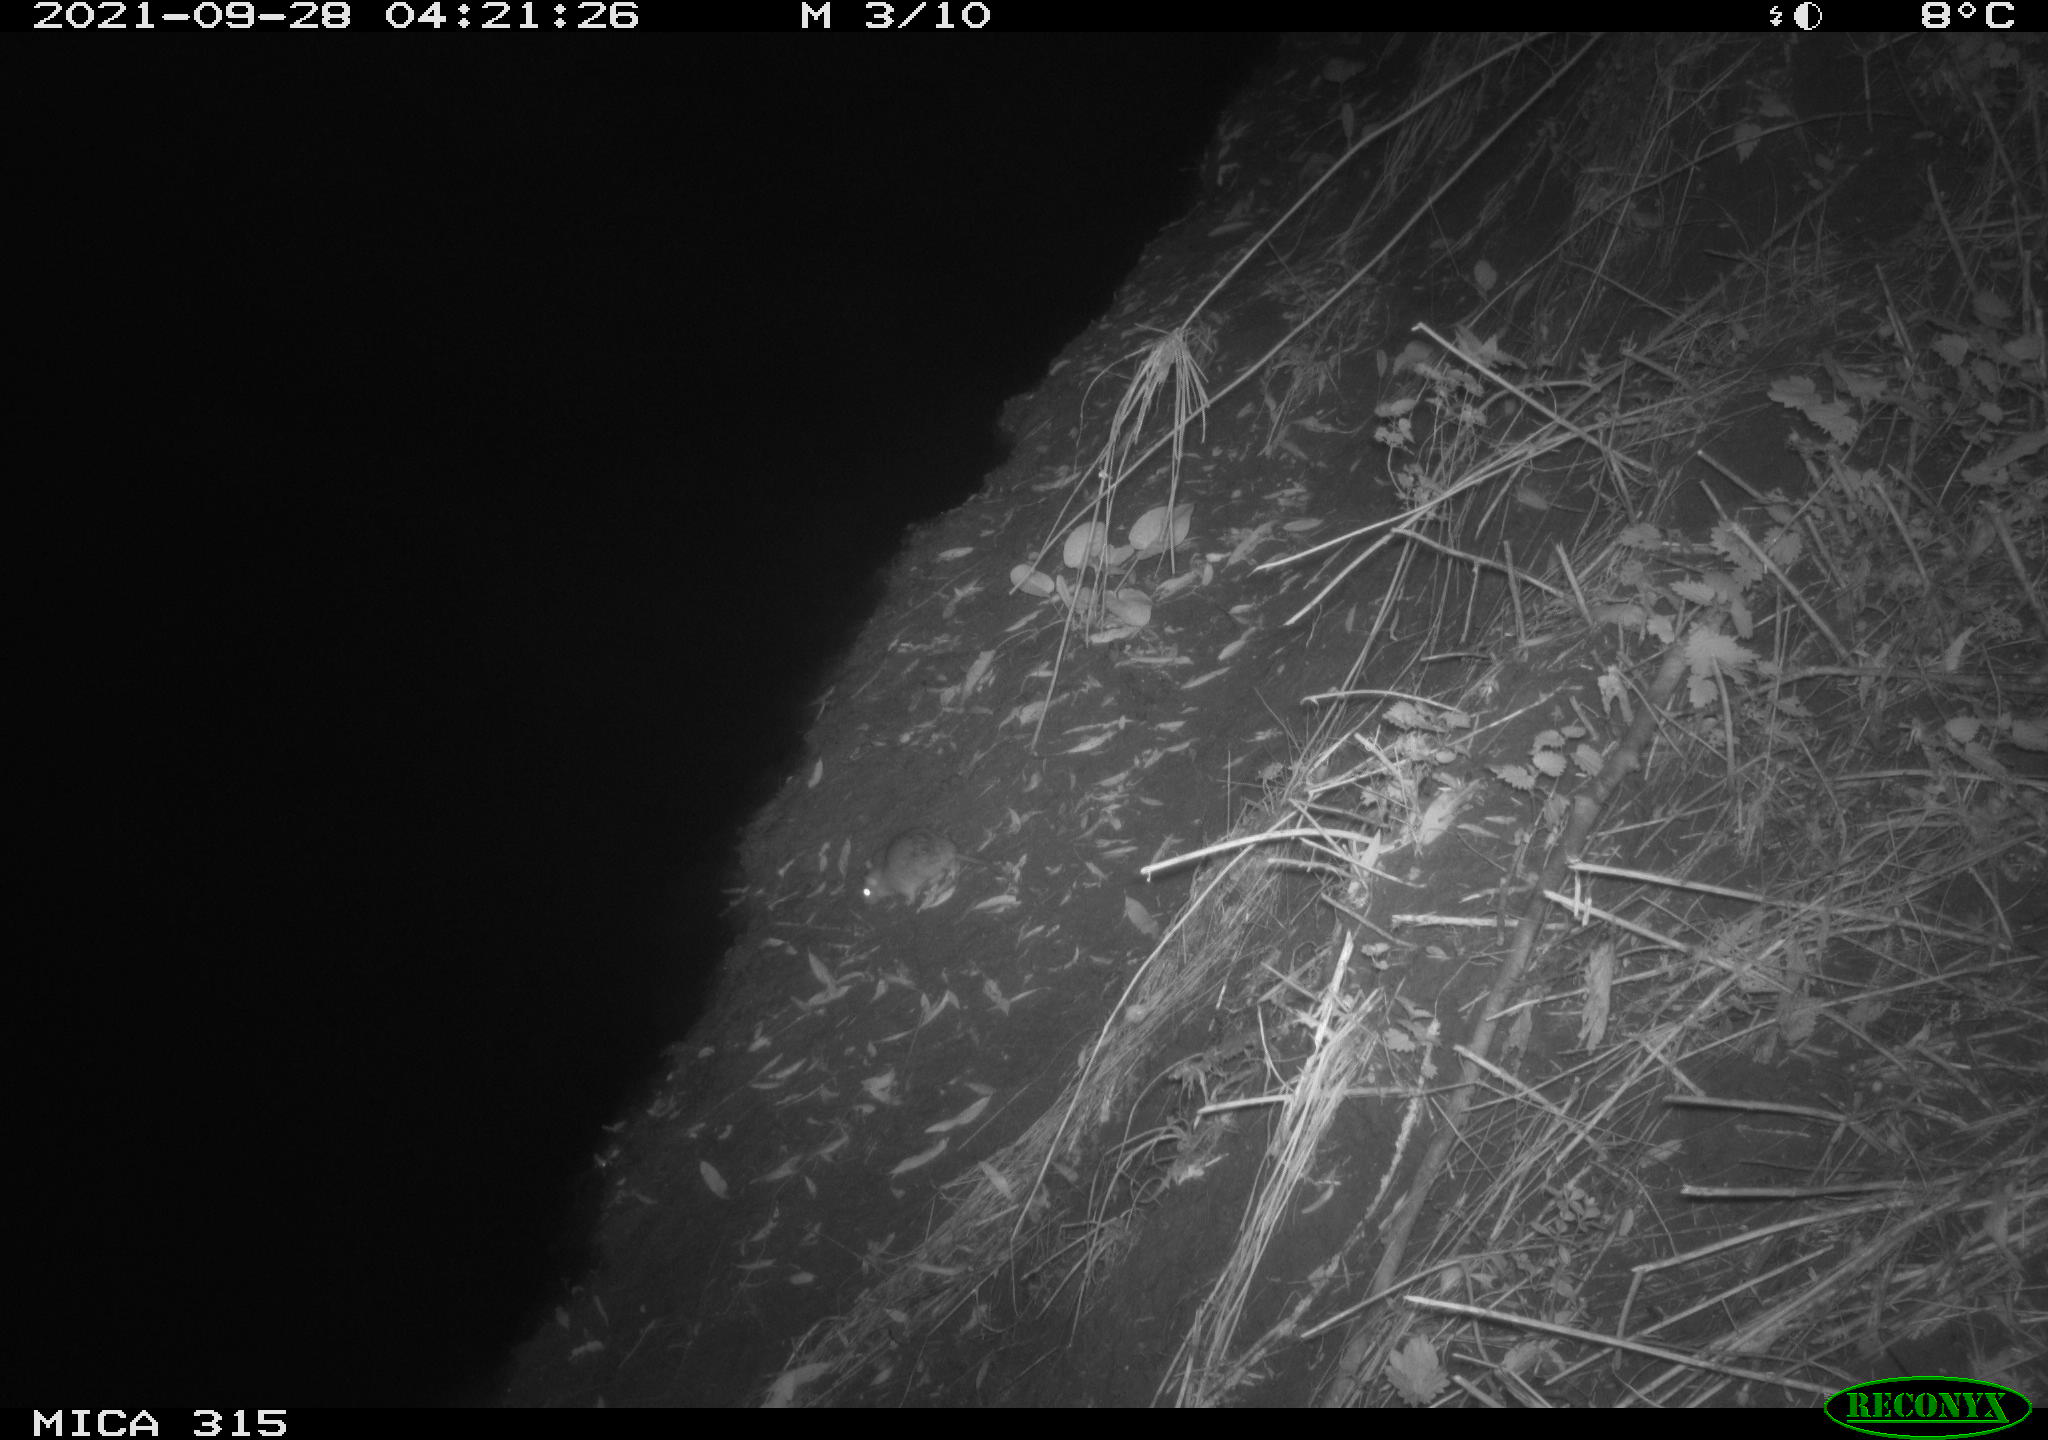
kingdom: Animalia
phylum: Chordata
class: Mammalia
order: Rodentia
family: Muridae
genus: Rattus
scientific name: Rattus norvegicus
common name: Brown rat
